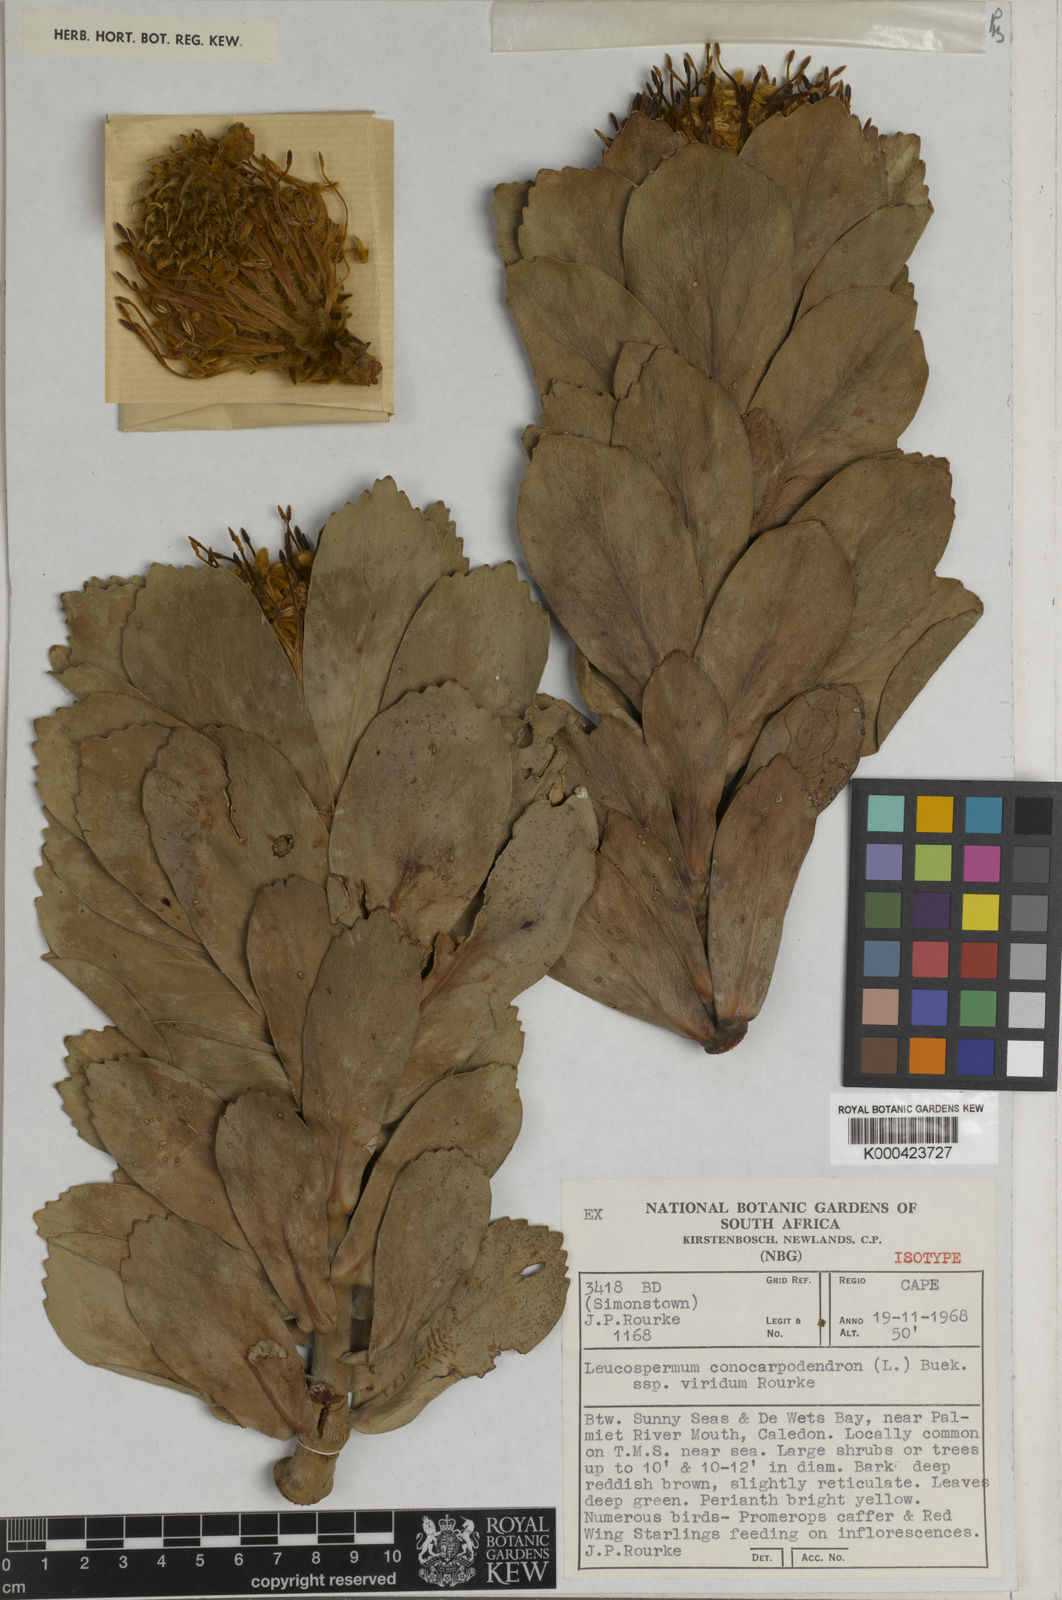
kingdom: Plantae
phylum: Tracheophyta
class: Magnoliopsida
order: Proteales
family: Proteaceae
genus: Leucospermum
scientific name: Leucospermum conocarpodendron
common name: Tree pincushion
